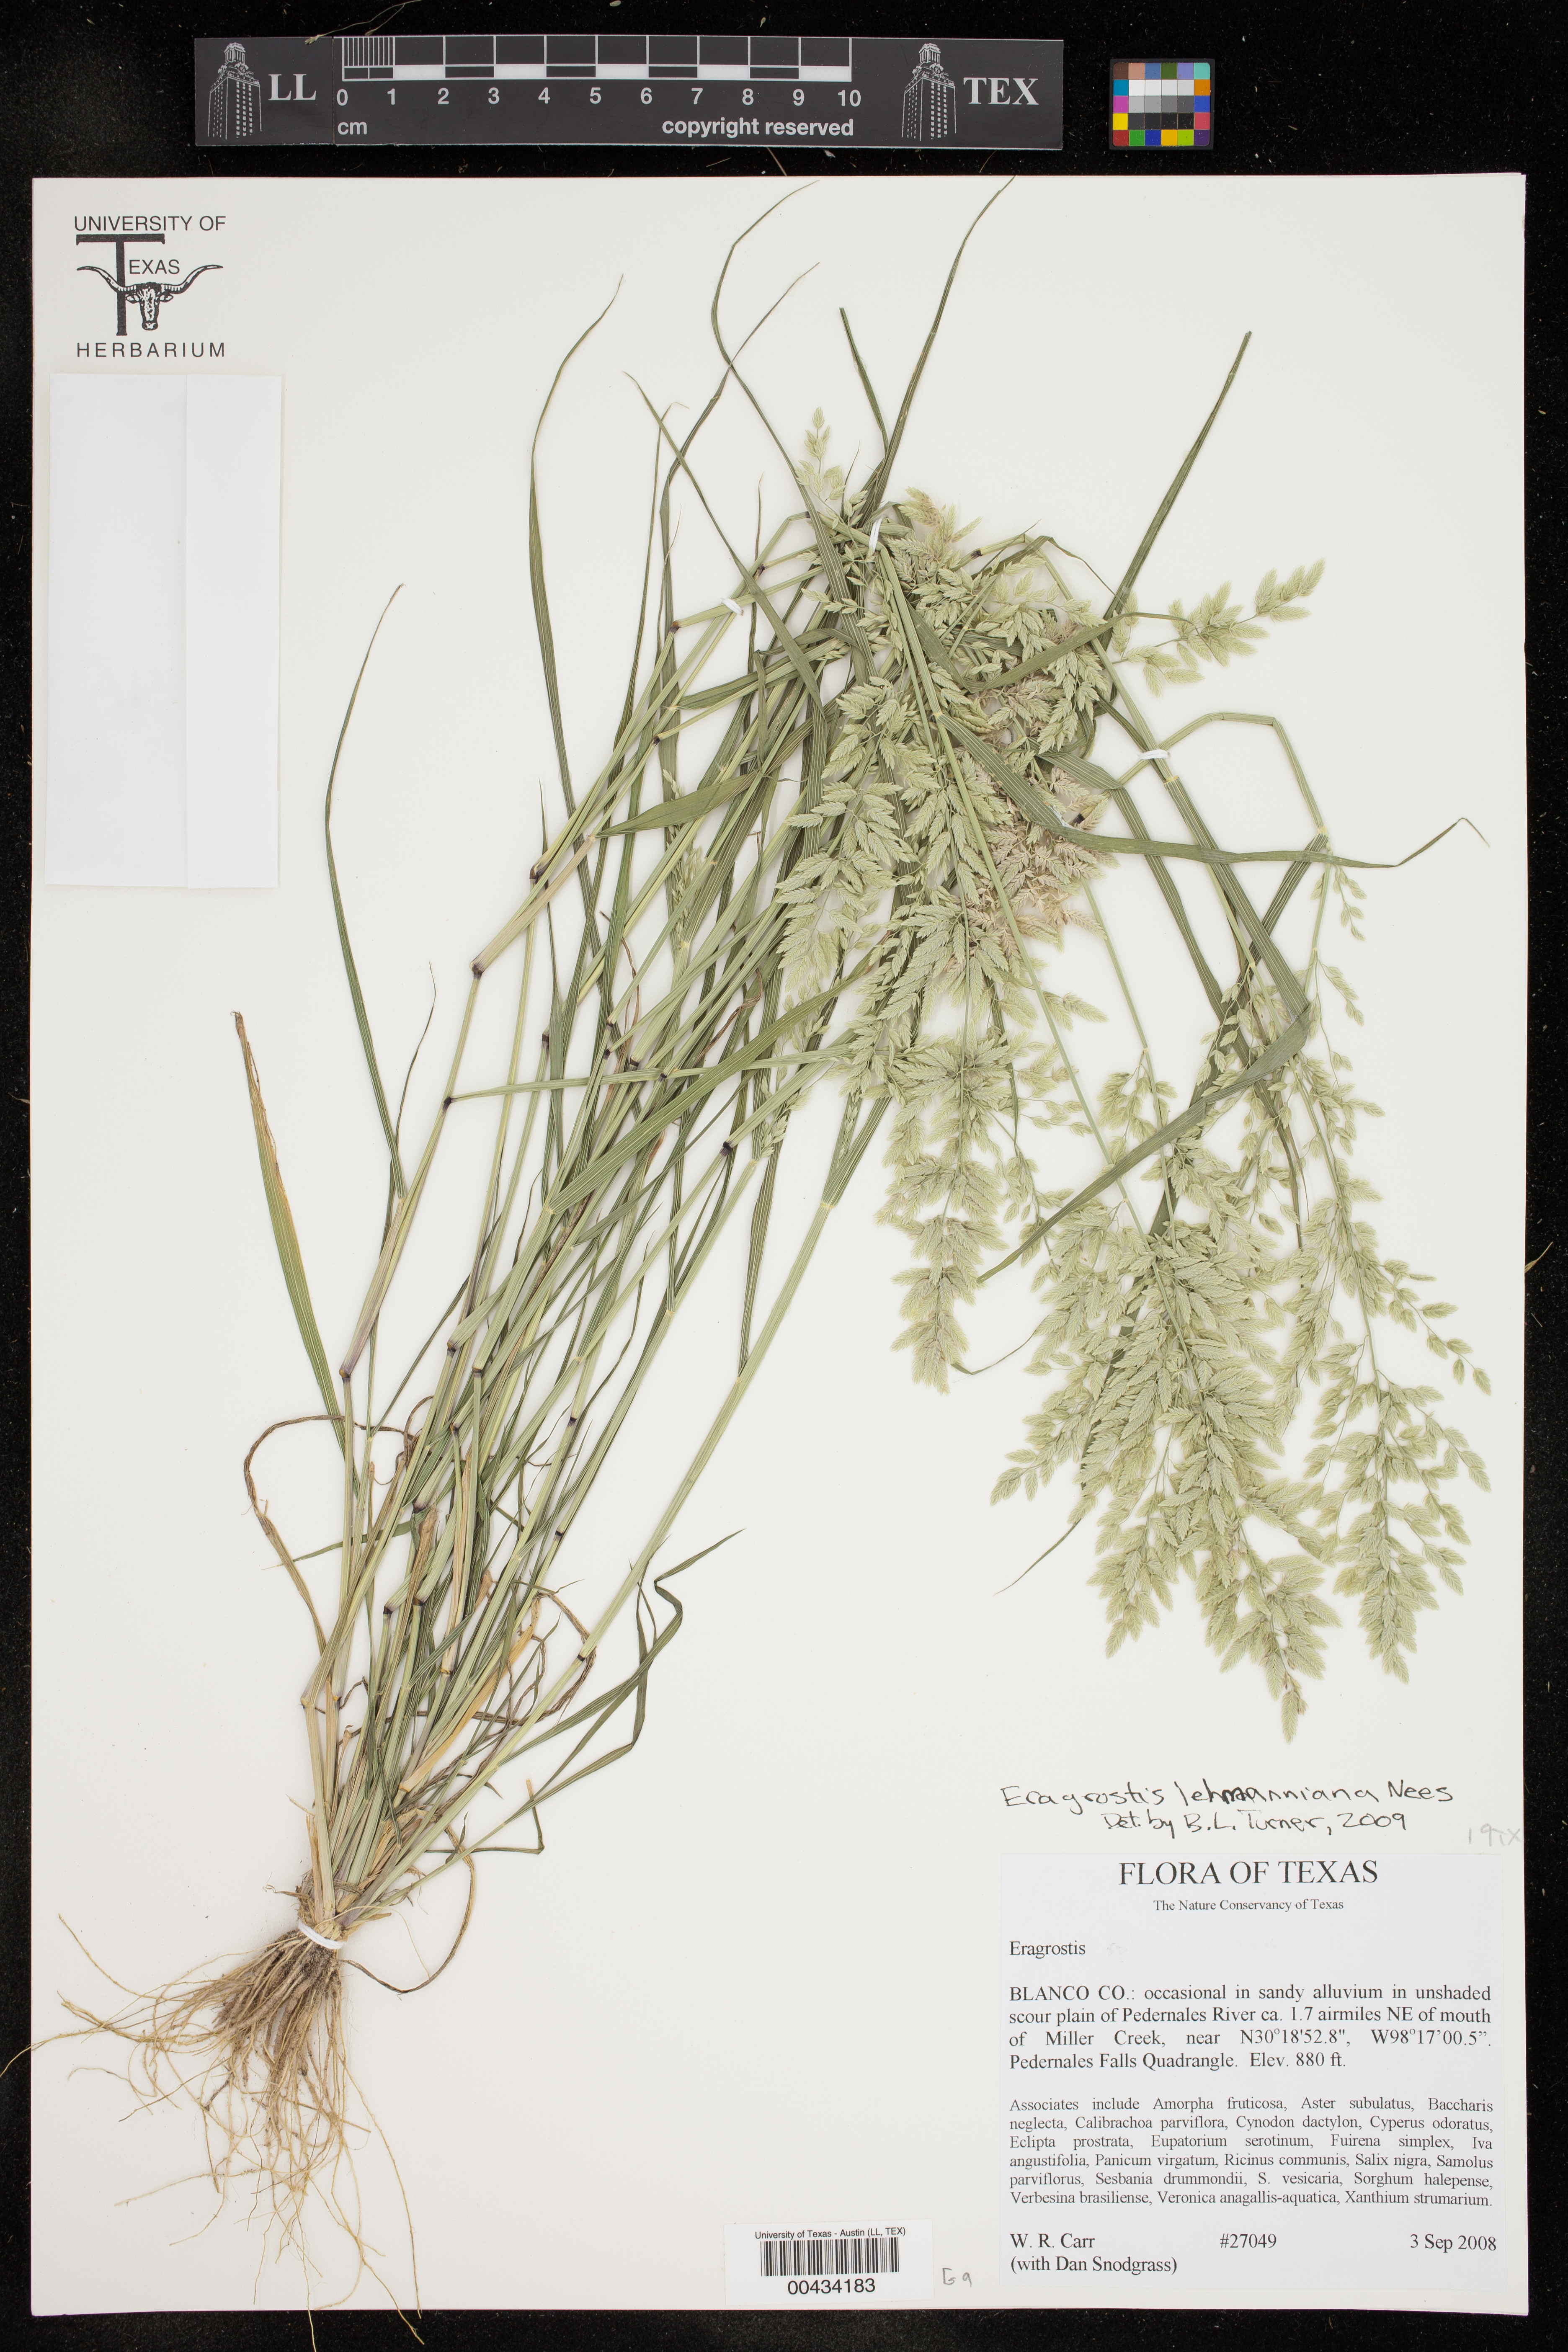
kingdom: Plantae
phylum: Tracheophyta
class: Liliopsida
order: Poales
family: Poaceae
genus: Eragrostis
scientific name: Eragrostis lehmanniana
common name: Lehmann lovegrass
